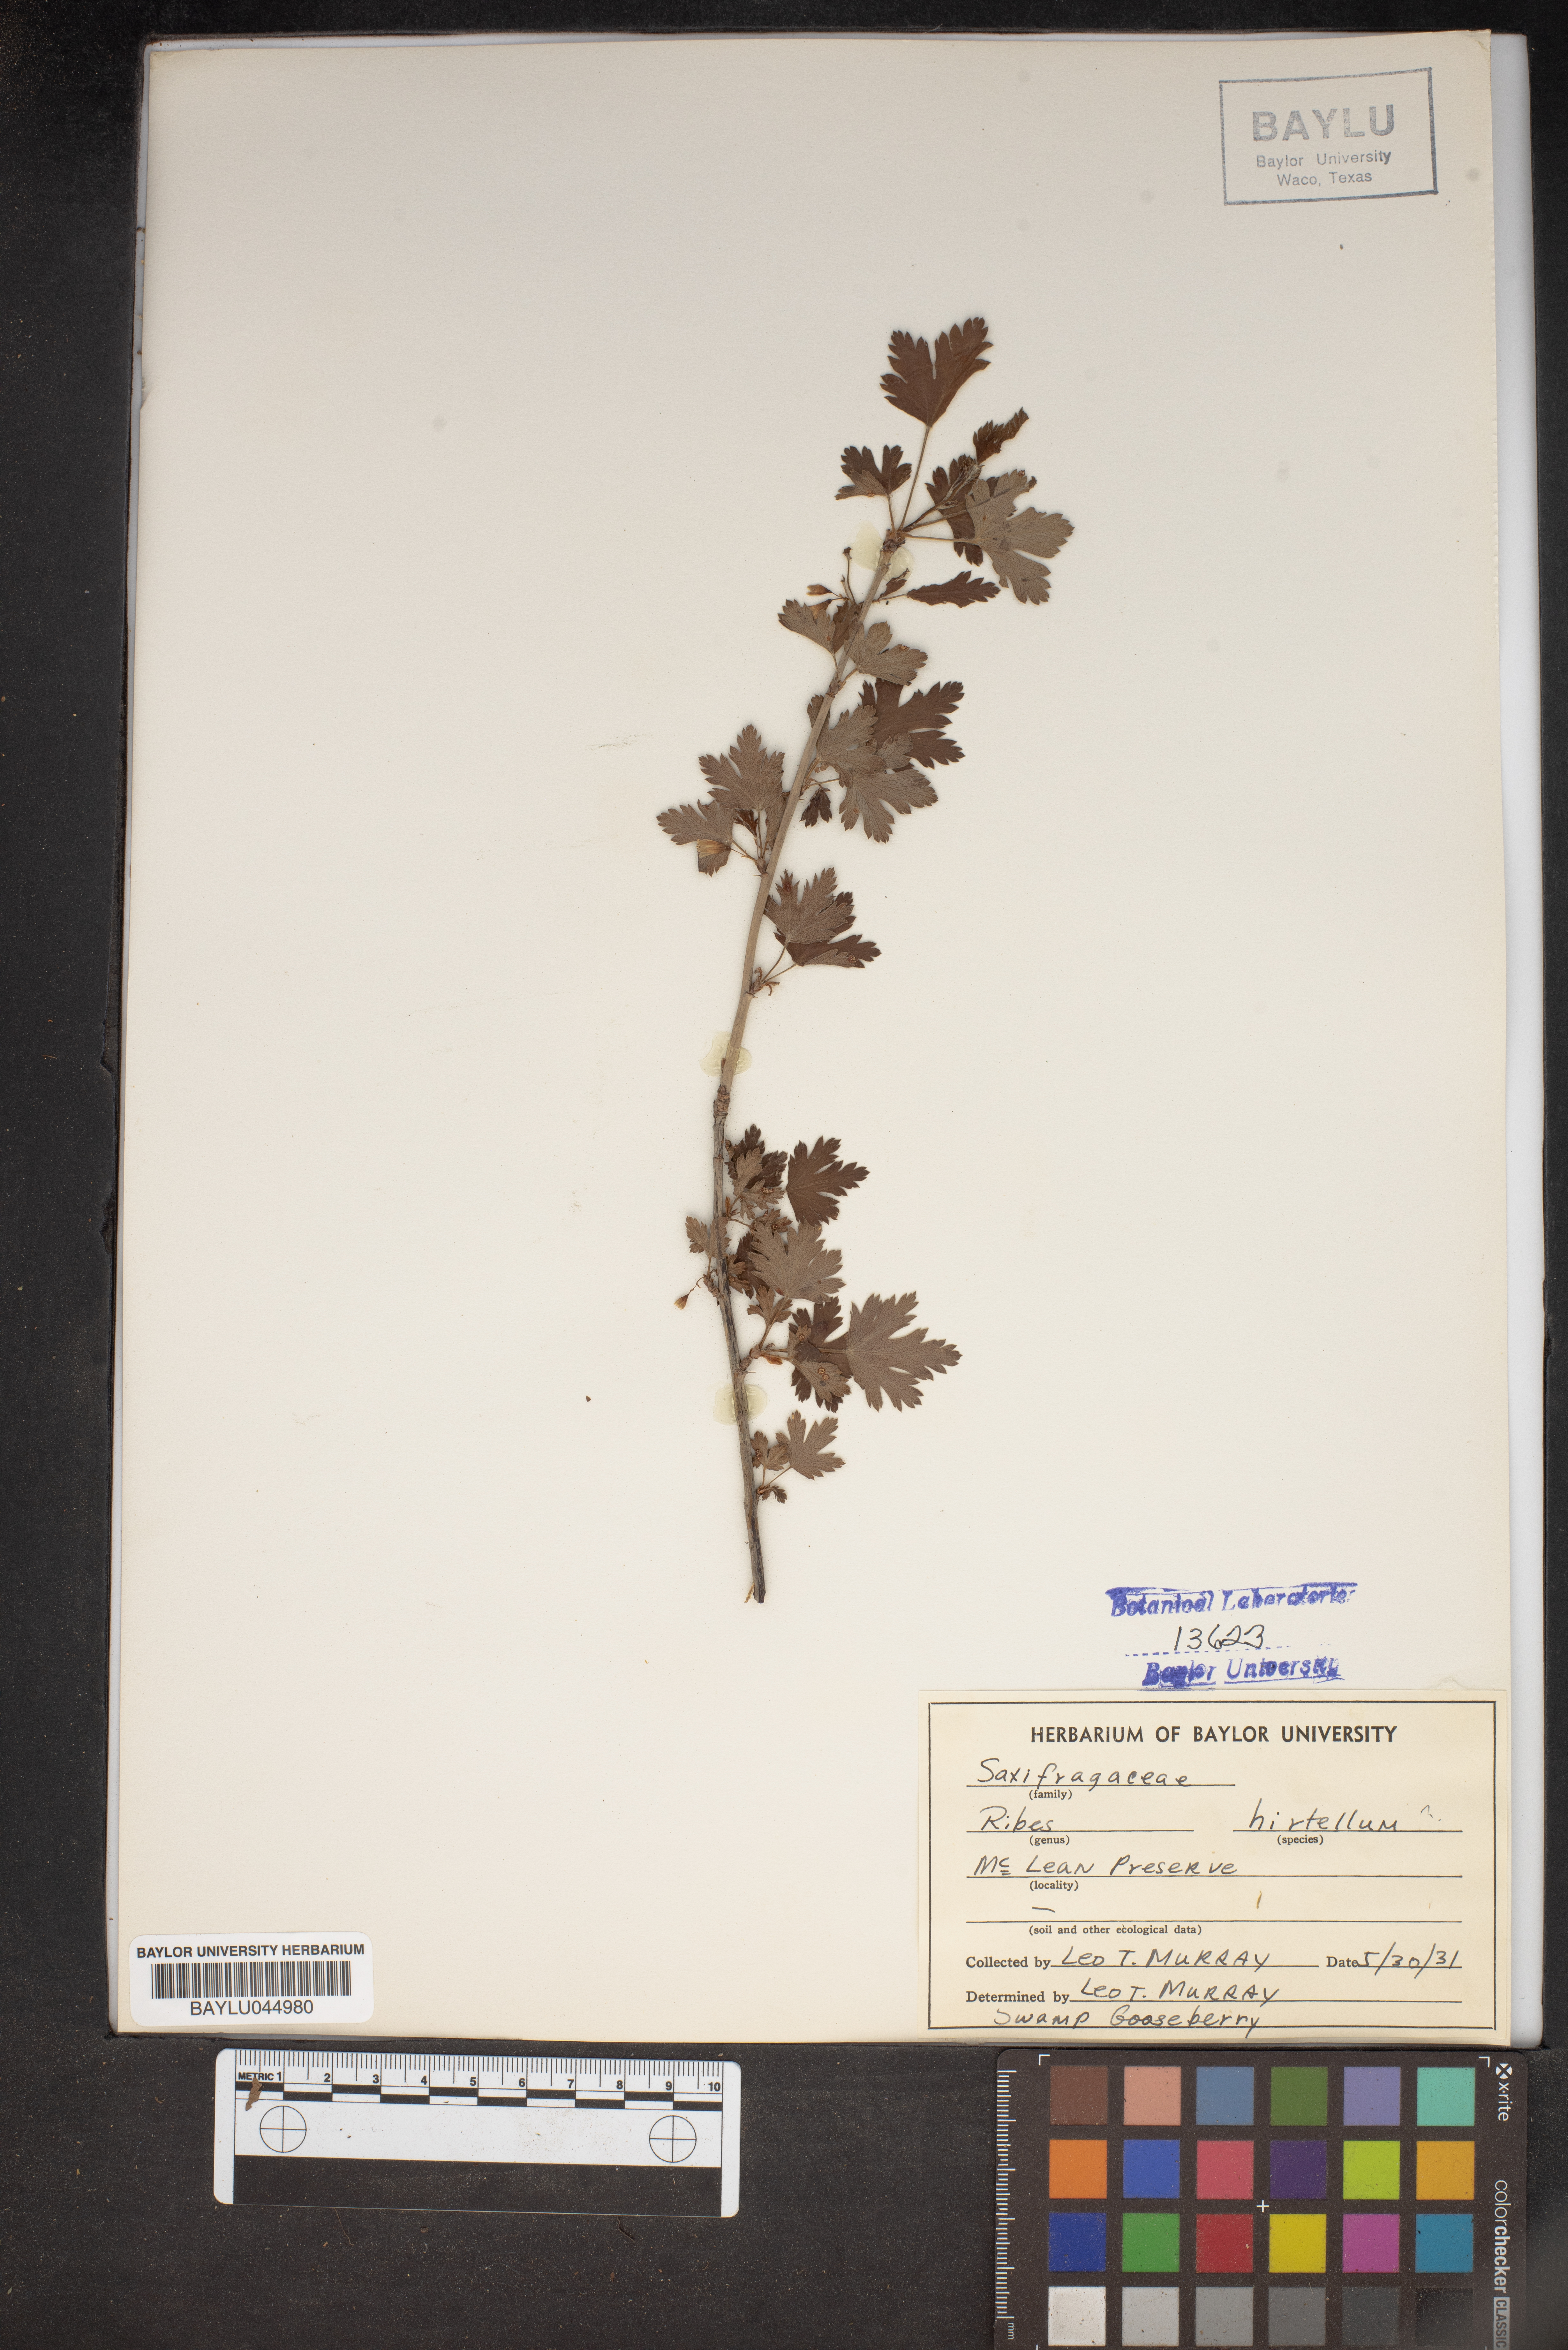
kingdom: Plantae
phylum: Tracheophyta
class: Magnoliopsida
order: Saxifragales
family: Grossulariaceae
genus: Ribes
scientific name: Ribes hirtellum
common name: Hairy gooseberry
